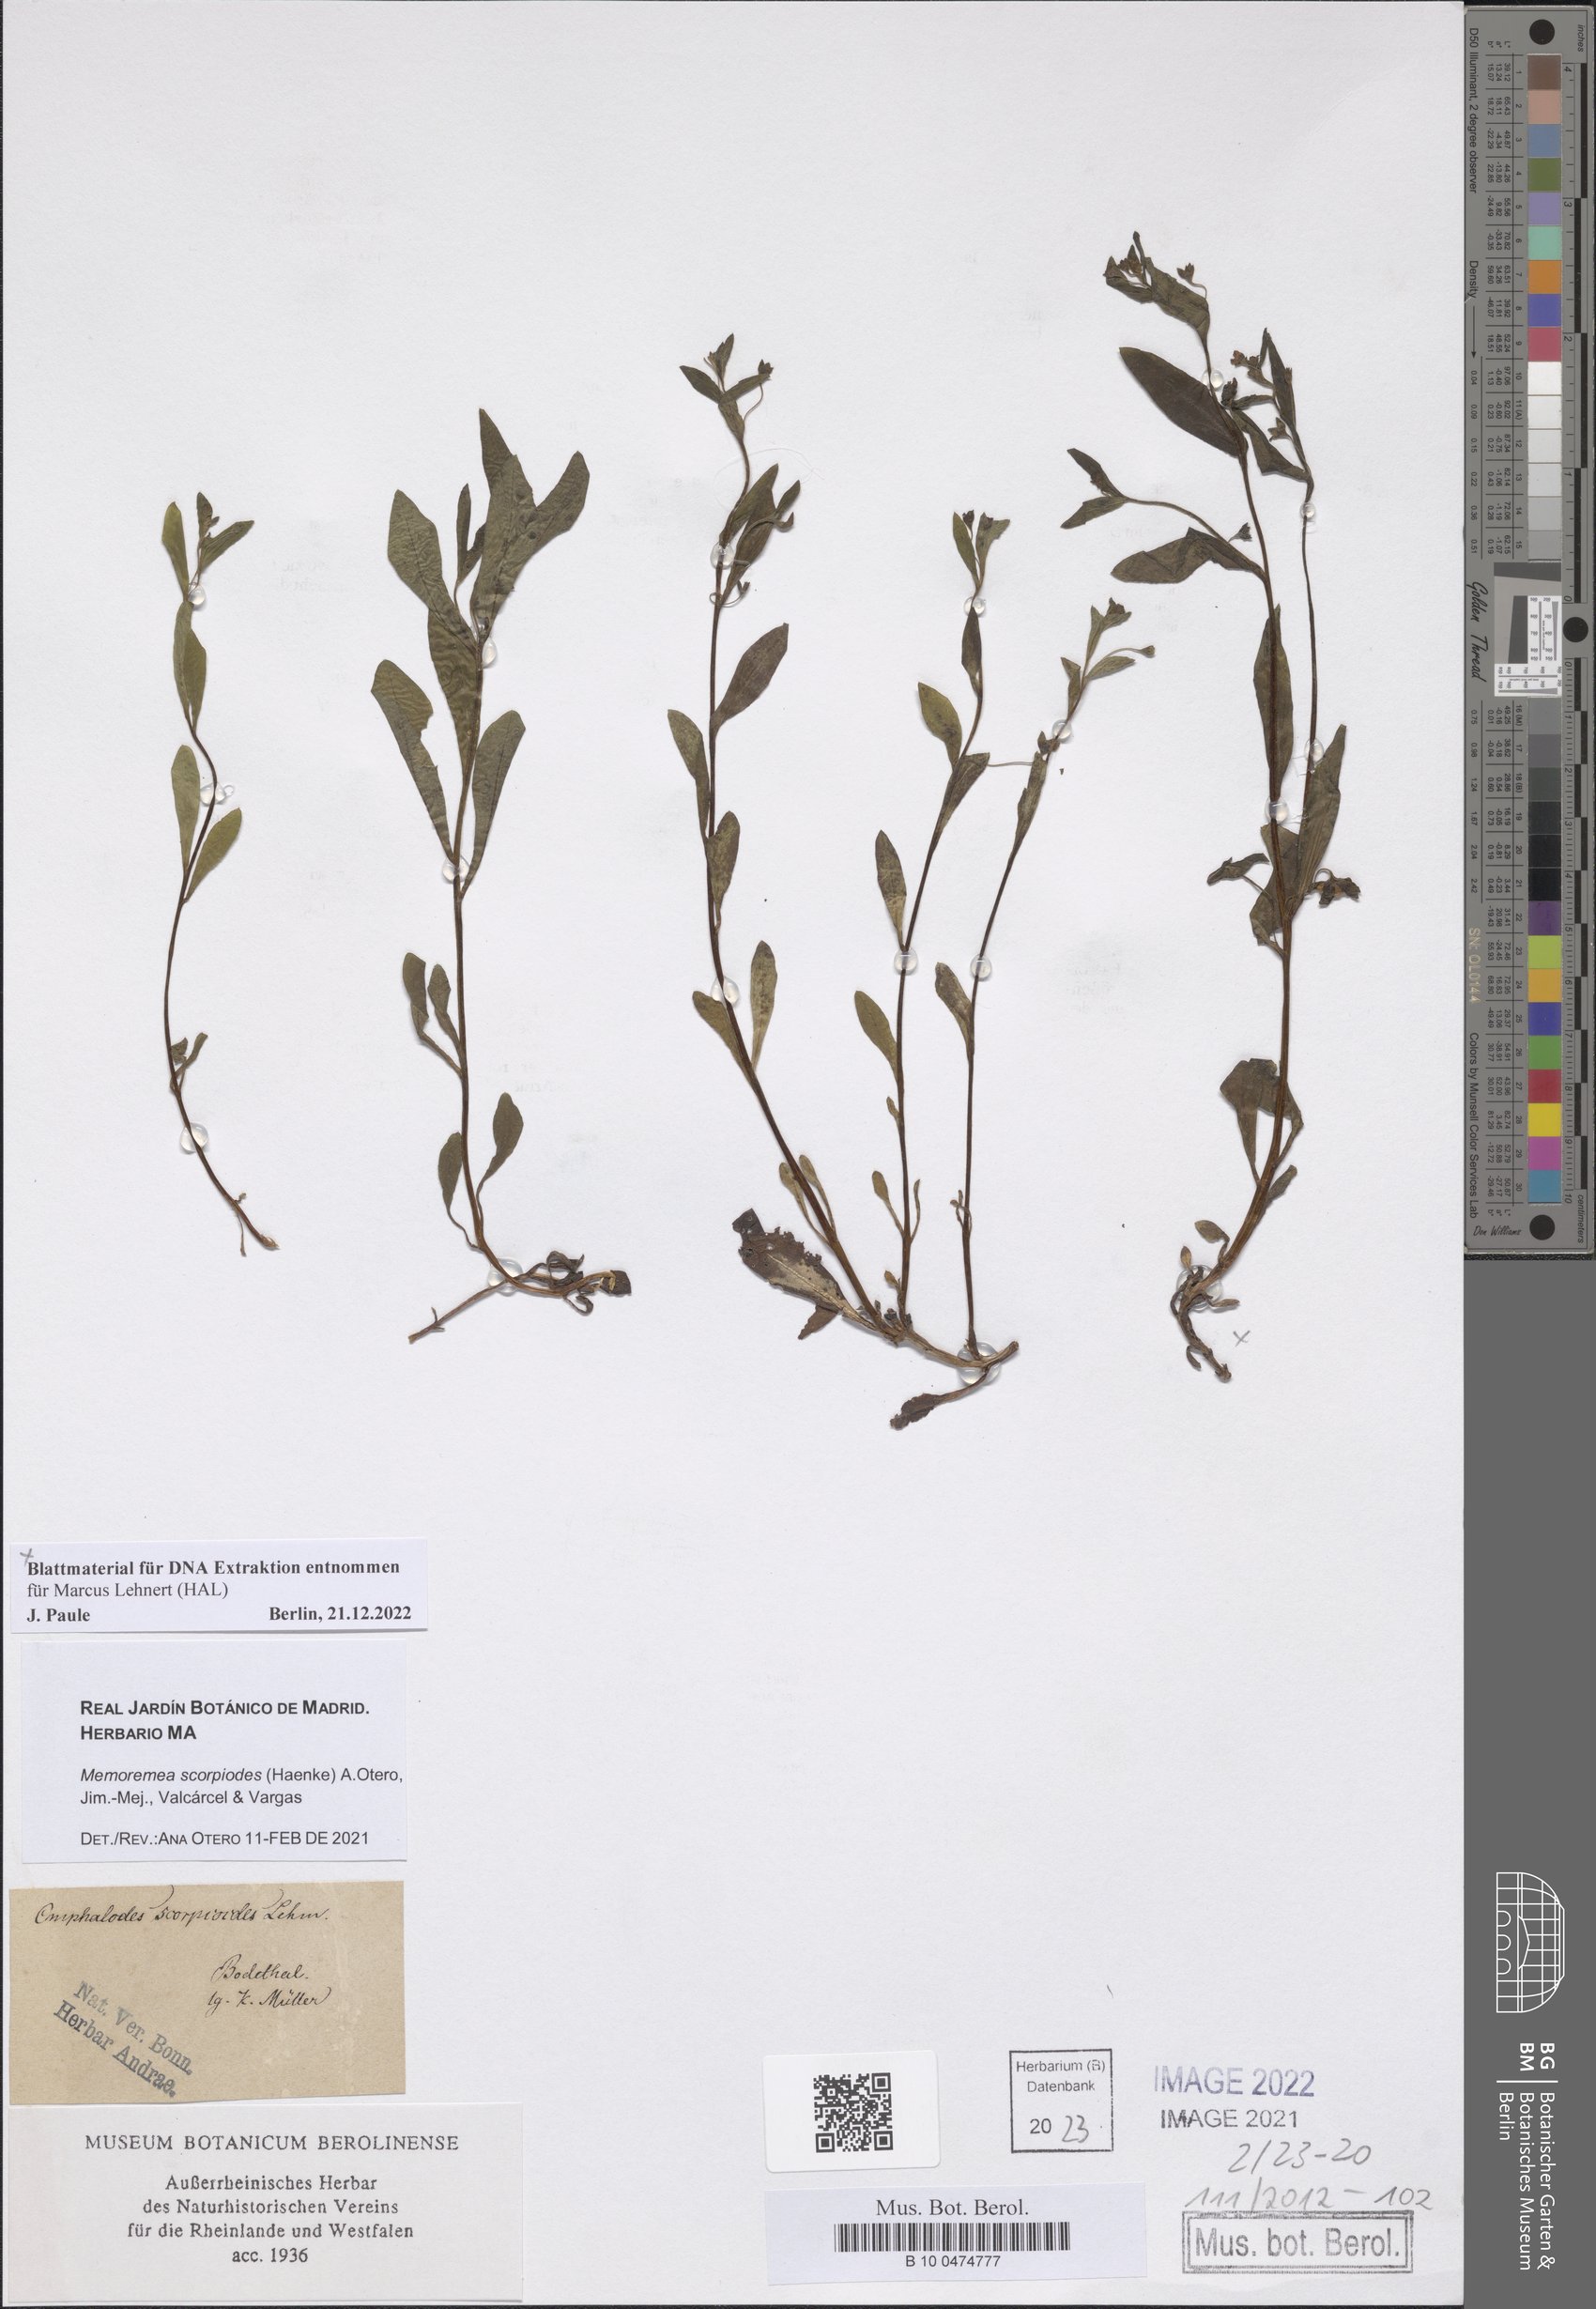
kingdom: Plantae
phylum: Tracheophyta
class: Magnoliopsida
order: Boraginales
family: Boraginaceae
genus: Memoremea
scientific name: Memoremea scorpioides
